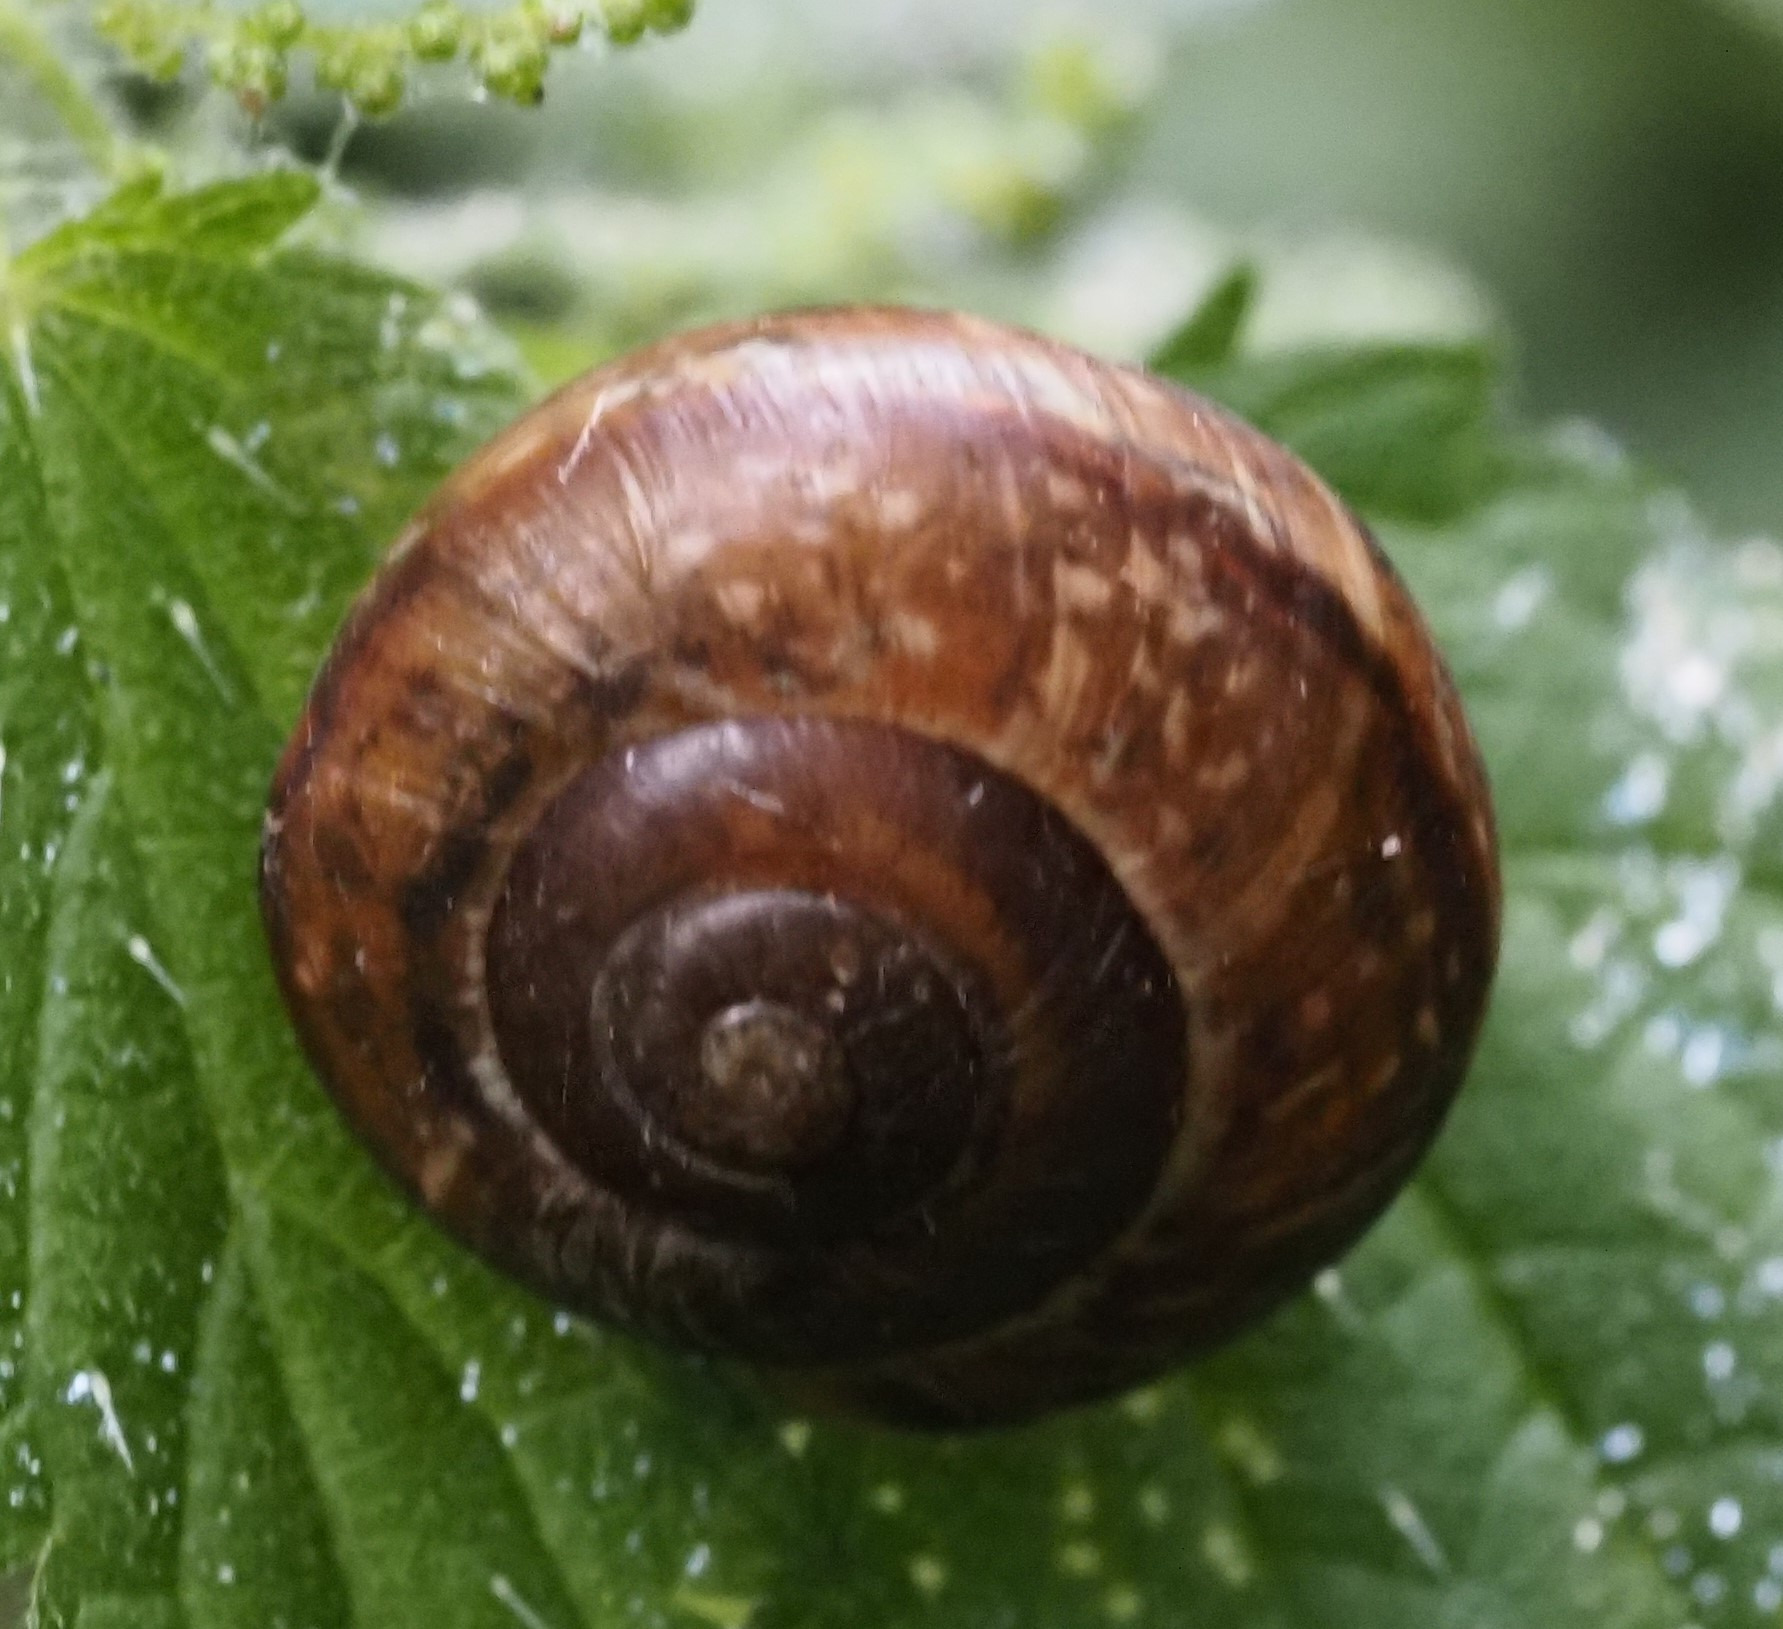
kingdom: Animalia
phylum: Mollusca
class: Gastropoda
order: Stylommatophora
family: Helicidae
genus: Arianta
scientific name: Arianta arbustorum
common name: Kratsnegl
